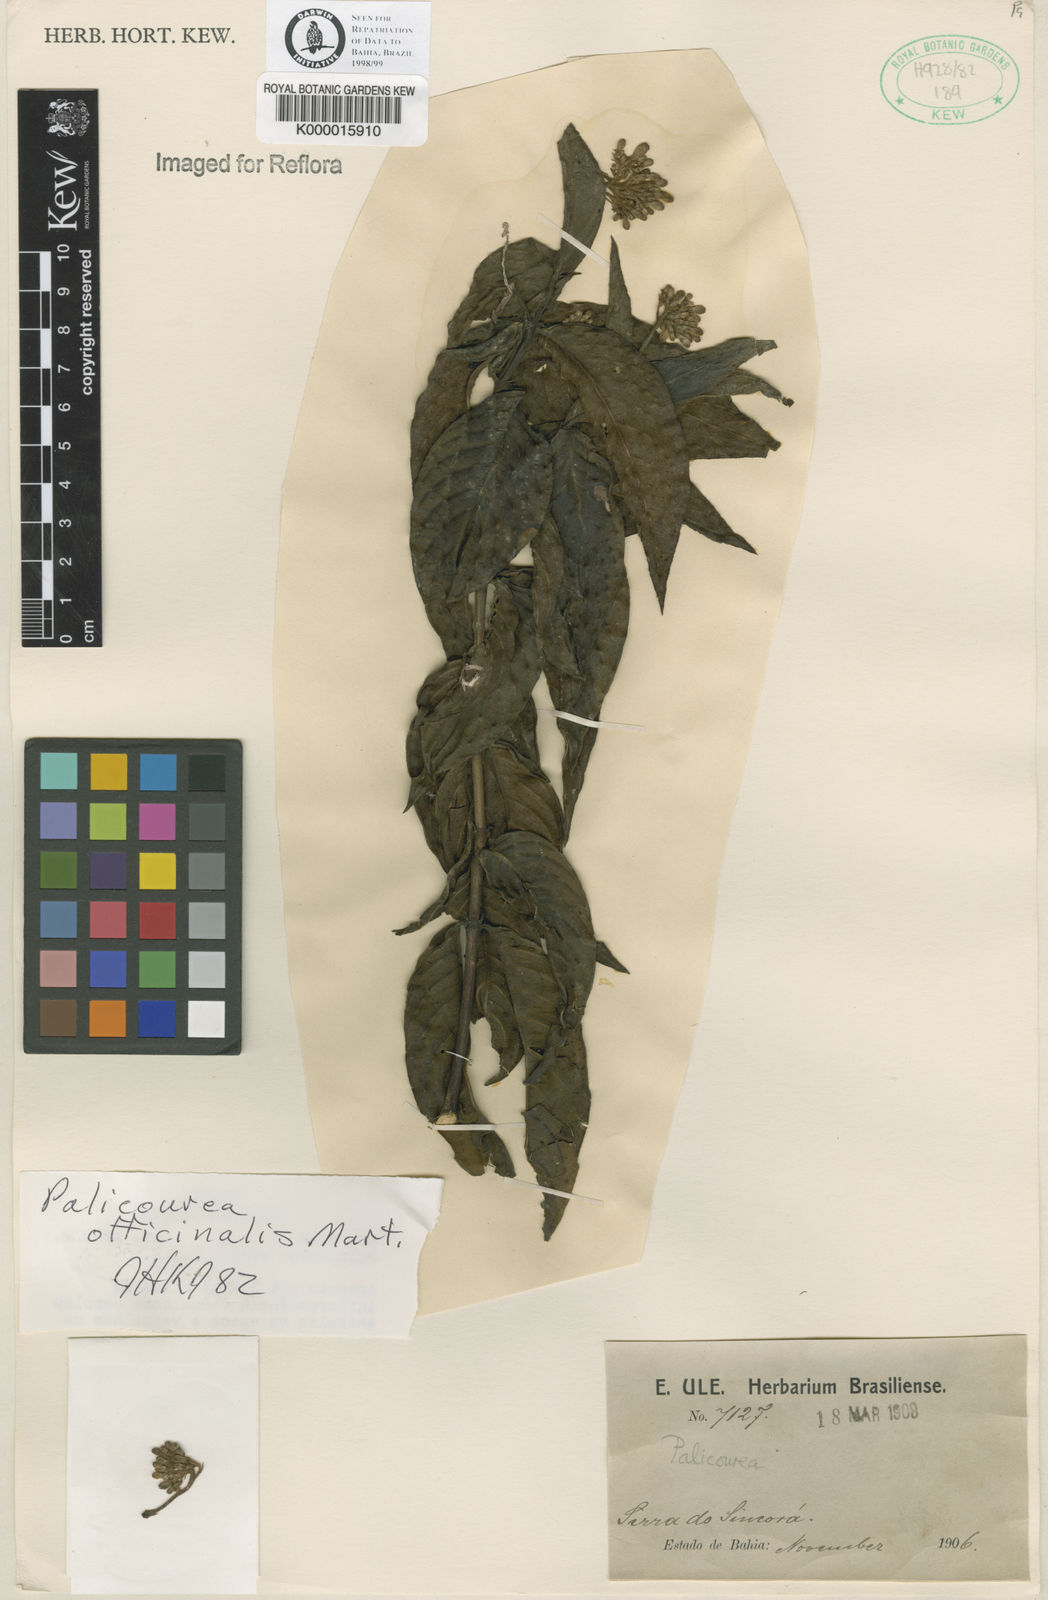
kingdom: Plantae
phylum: Tracheophyta
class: Magnoliopsida
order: Gentianales
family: Rubiaceae
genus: Palicourea
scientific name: Palicourea officinalis
